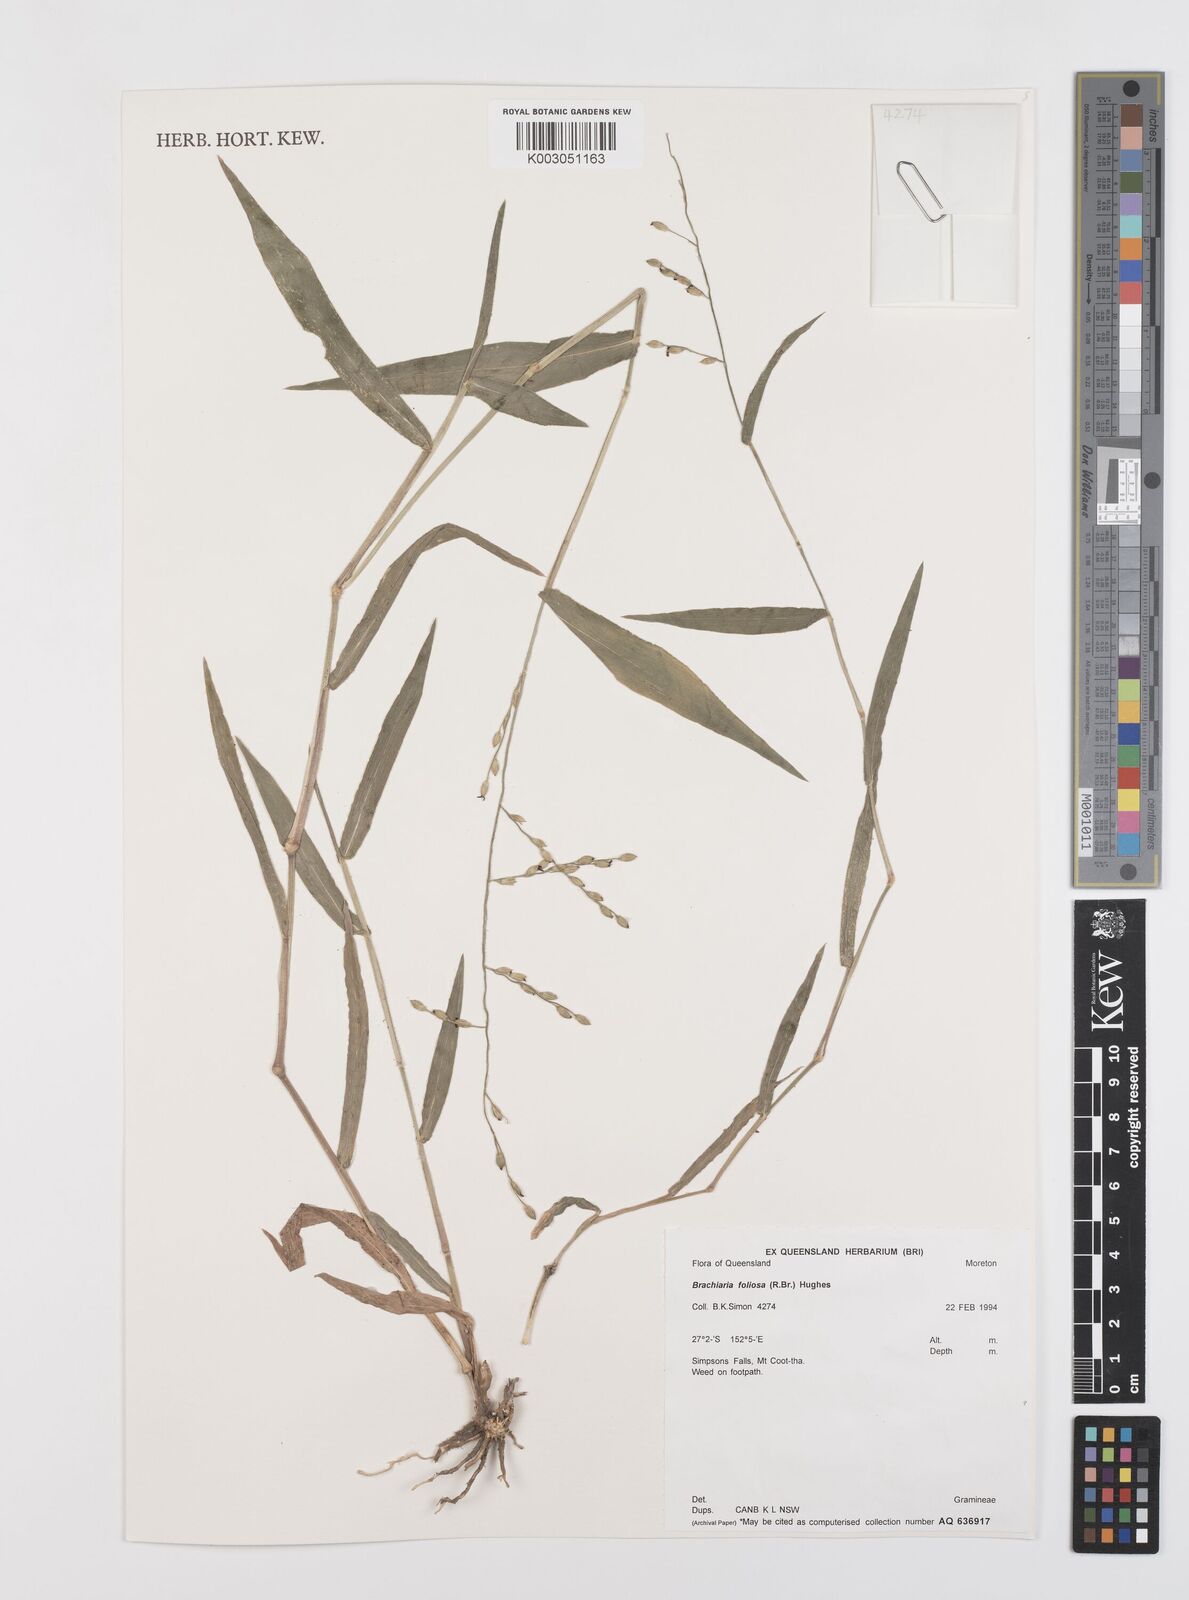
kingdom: Plantae
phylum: Tracheophyta
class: Liliopsida
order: Poales
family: Poaceae
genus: Urochloa
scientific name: Urochloa foliosa
